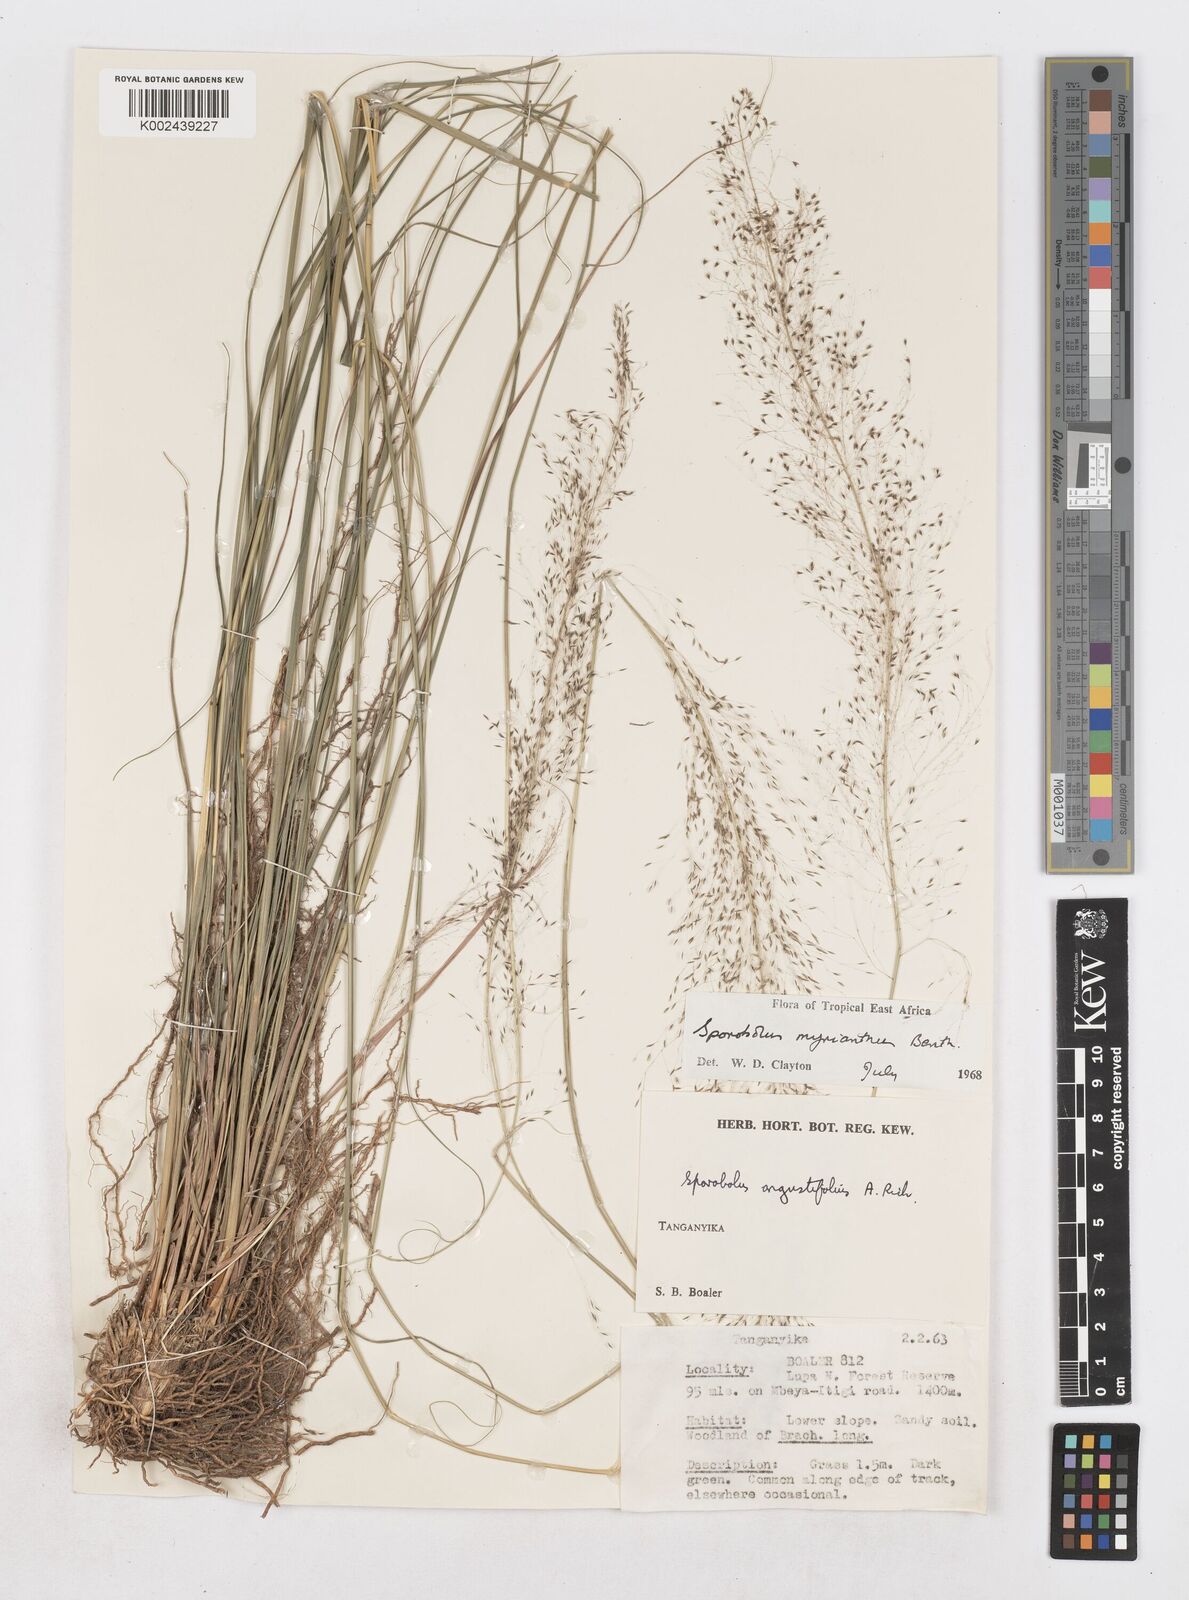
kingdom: Plantae
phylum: Tracheophyta
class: Liliopsida
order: Poales
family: Poaceae
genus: Sporobolus
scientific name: Sporobolus myrianthus
